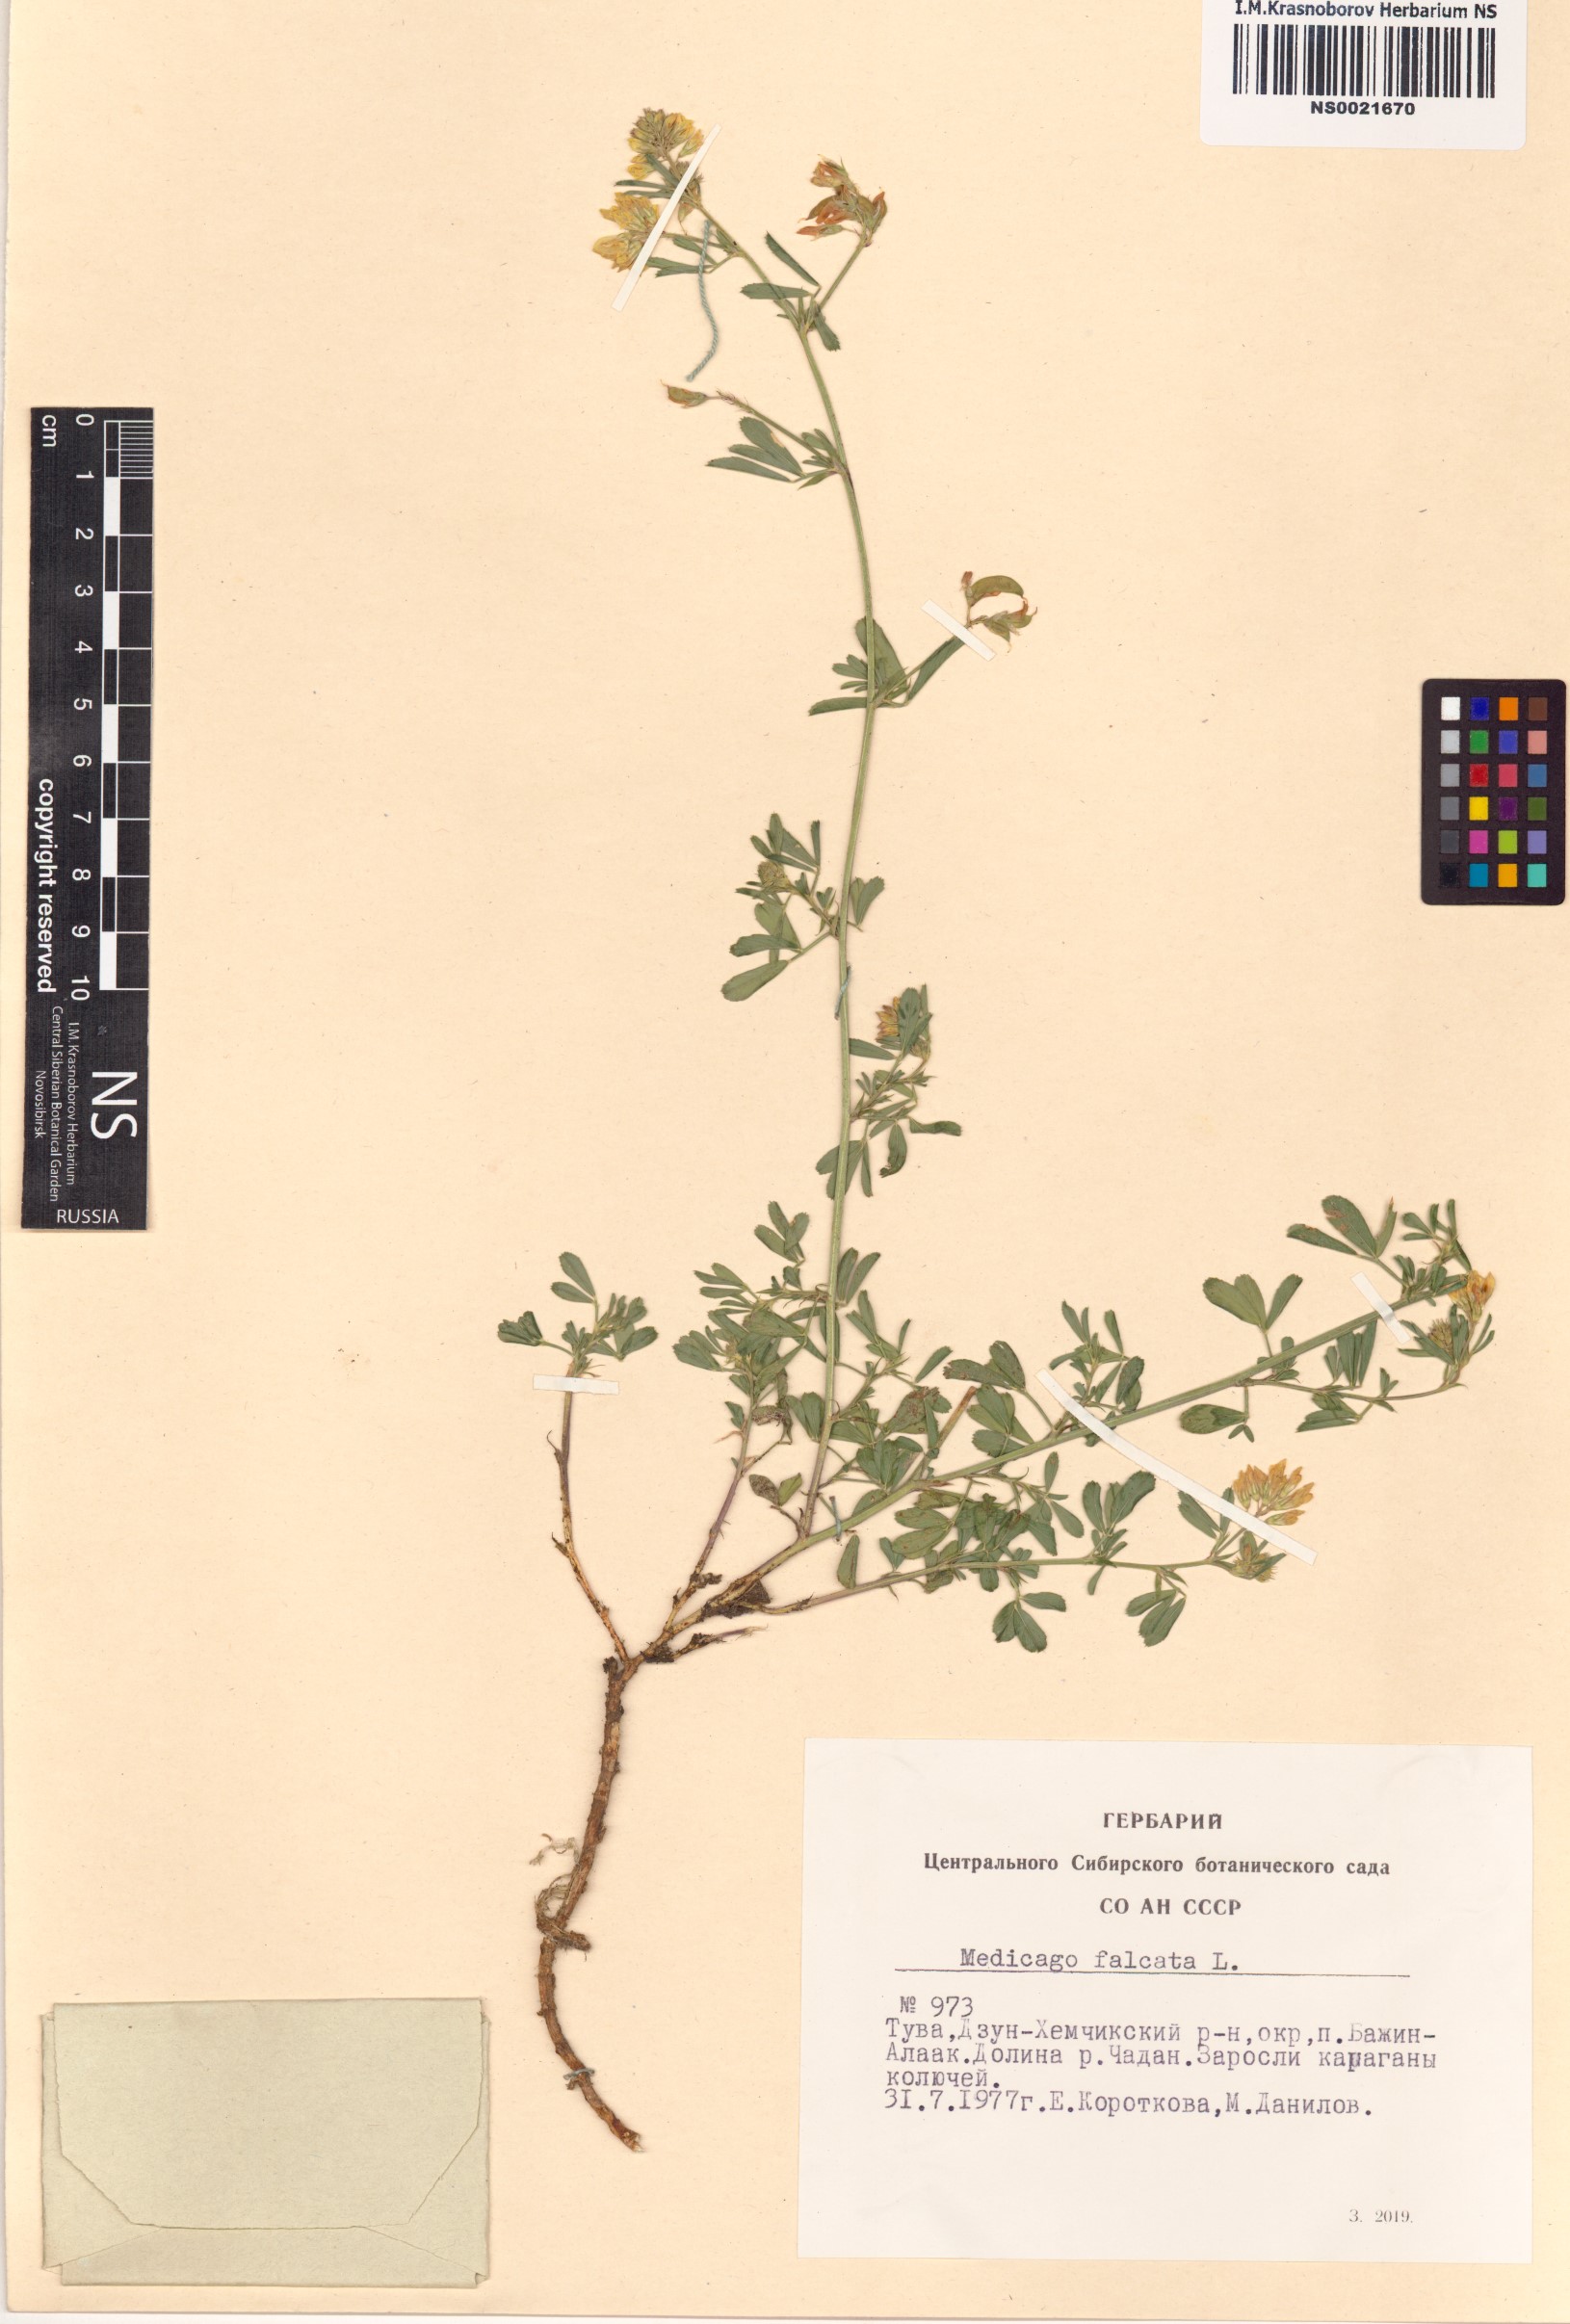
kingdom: Plantae
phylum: Tracheophyta
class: Magnoliopsida
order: Fabales
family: Fabaceae
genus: Medicago
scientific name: Medicago falcata
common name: Sickle medick
